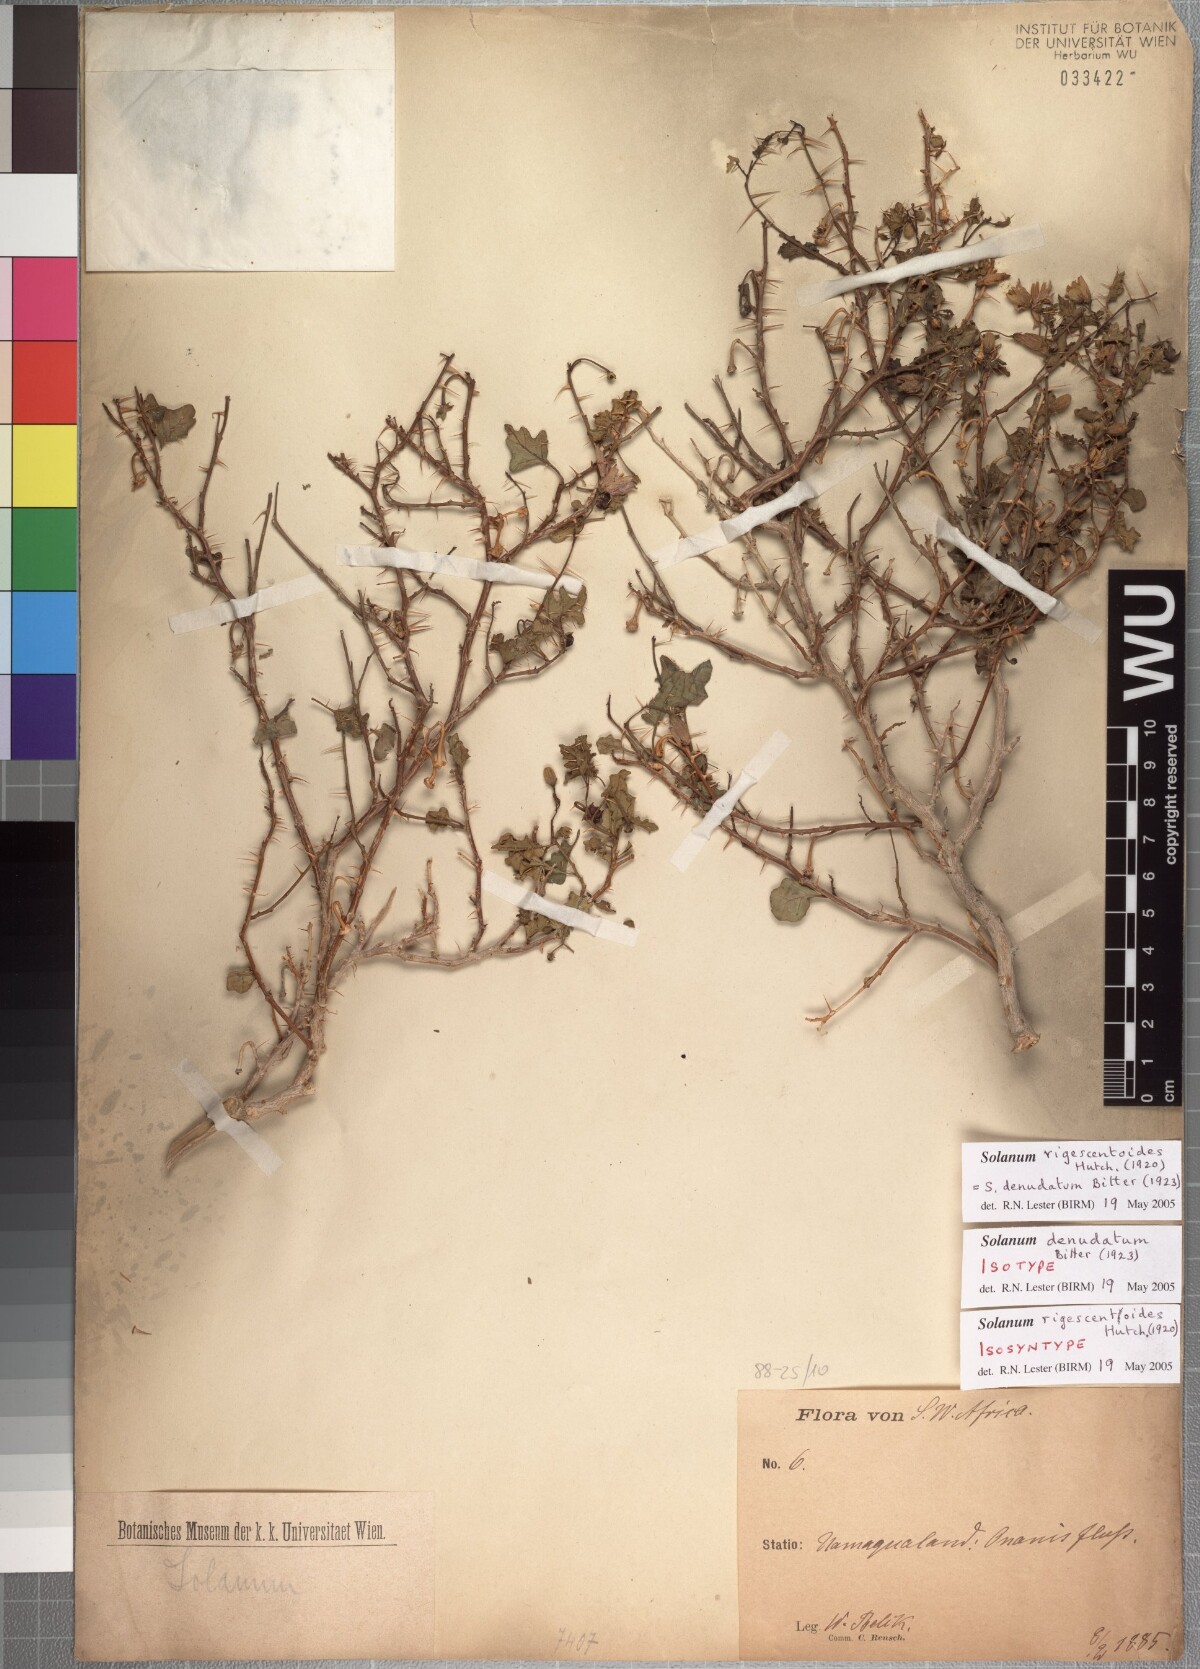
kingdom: Plantae
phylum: Tracheophyta
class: Magnoliopsida
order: Solanales
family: Solanaceae
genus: Solanum
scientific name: Solanum humile
